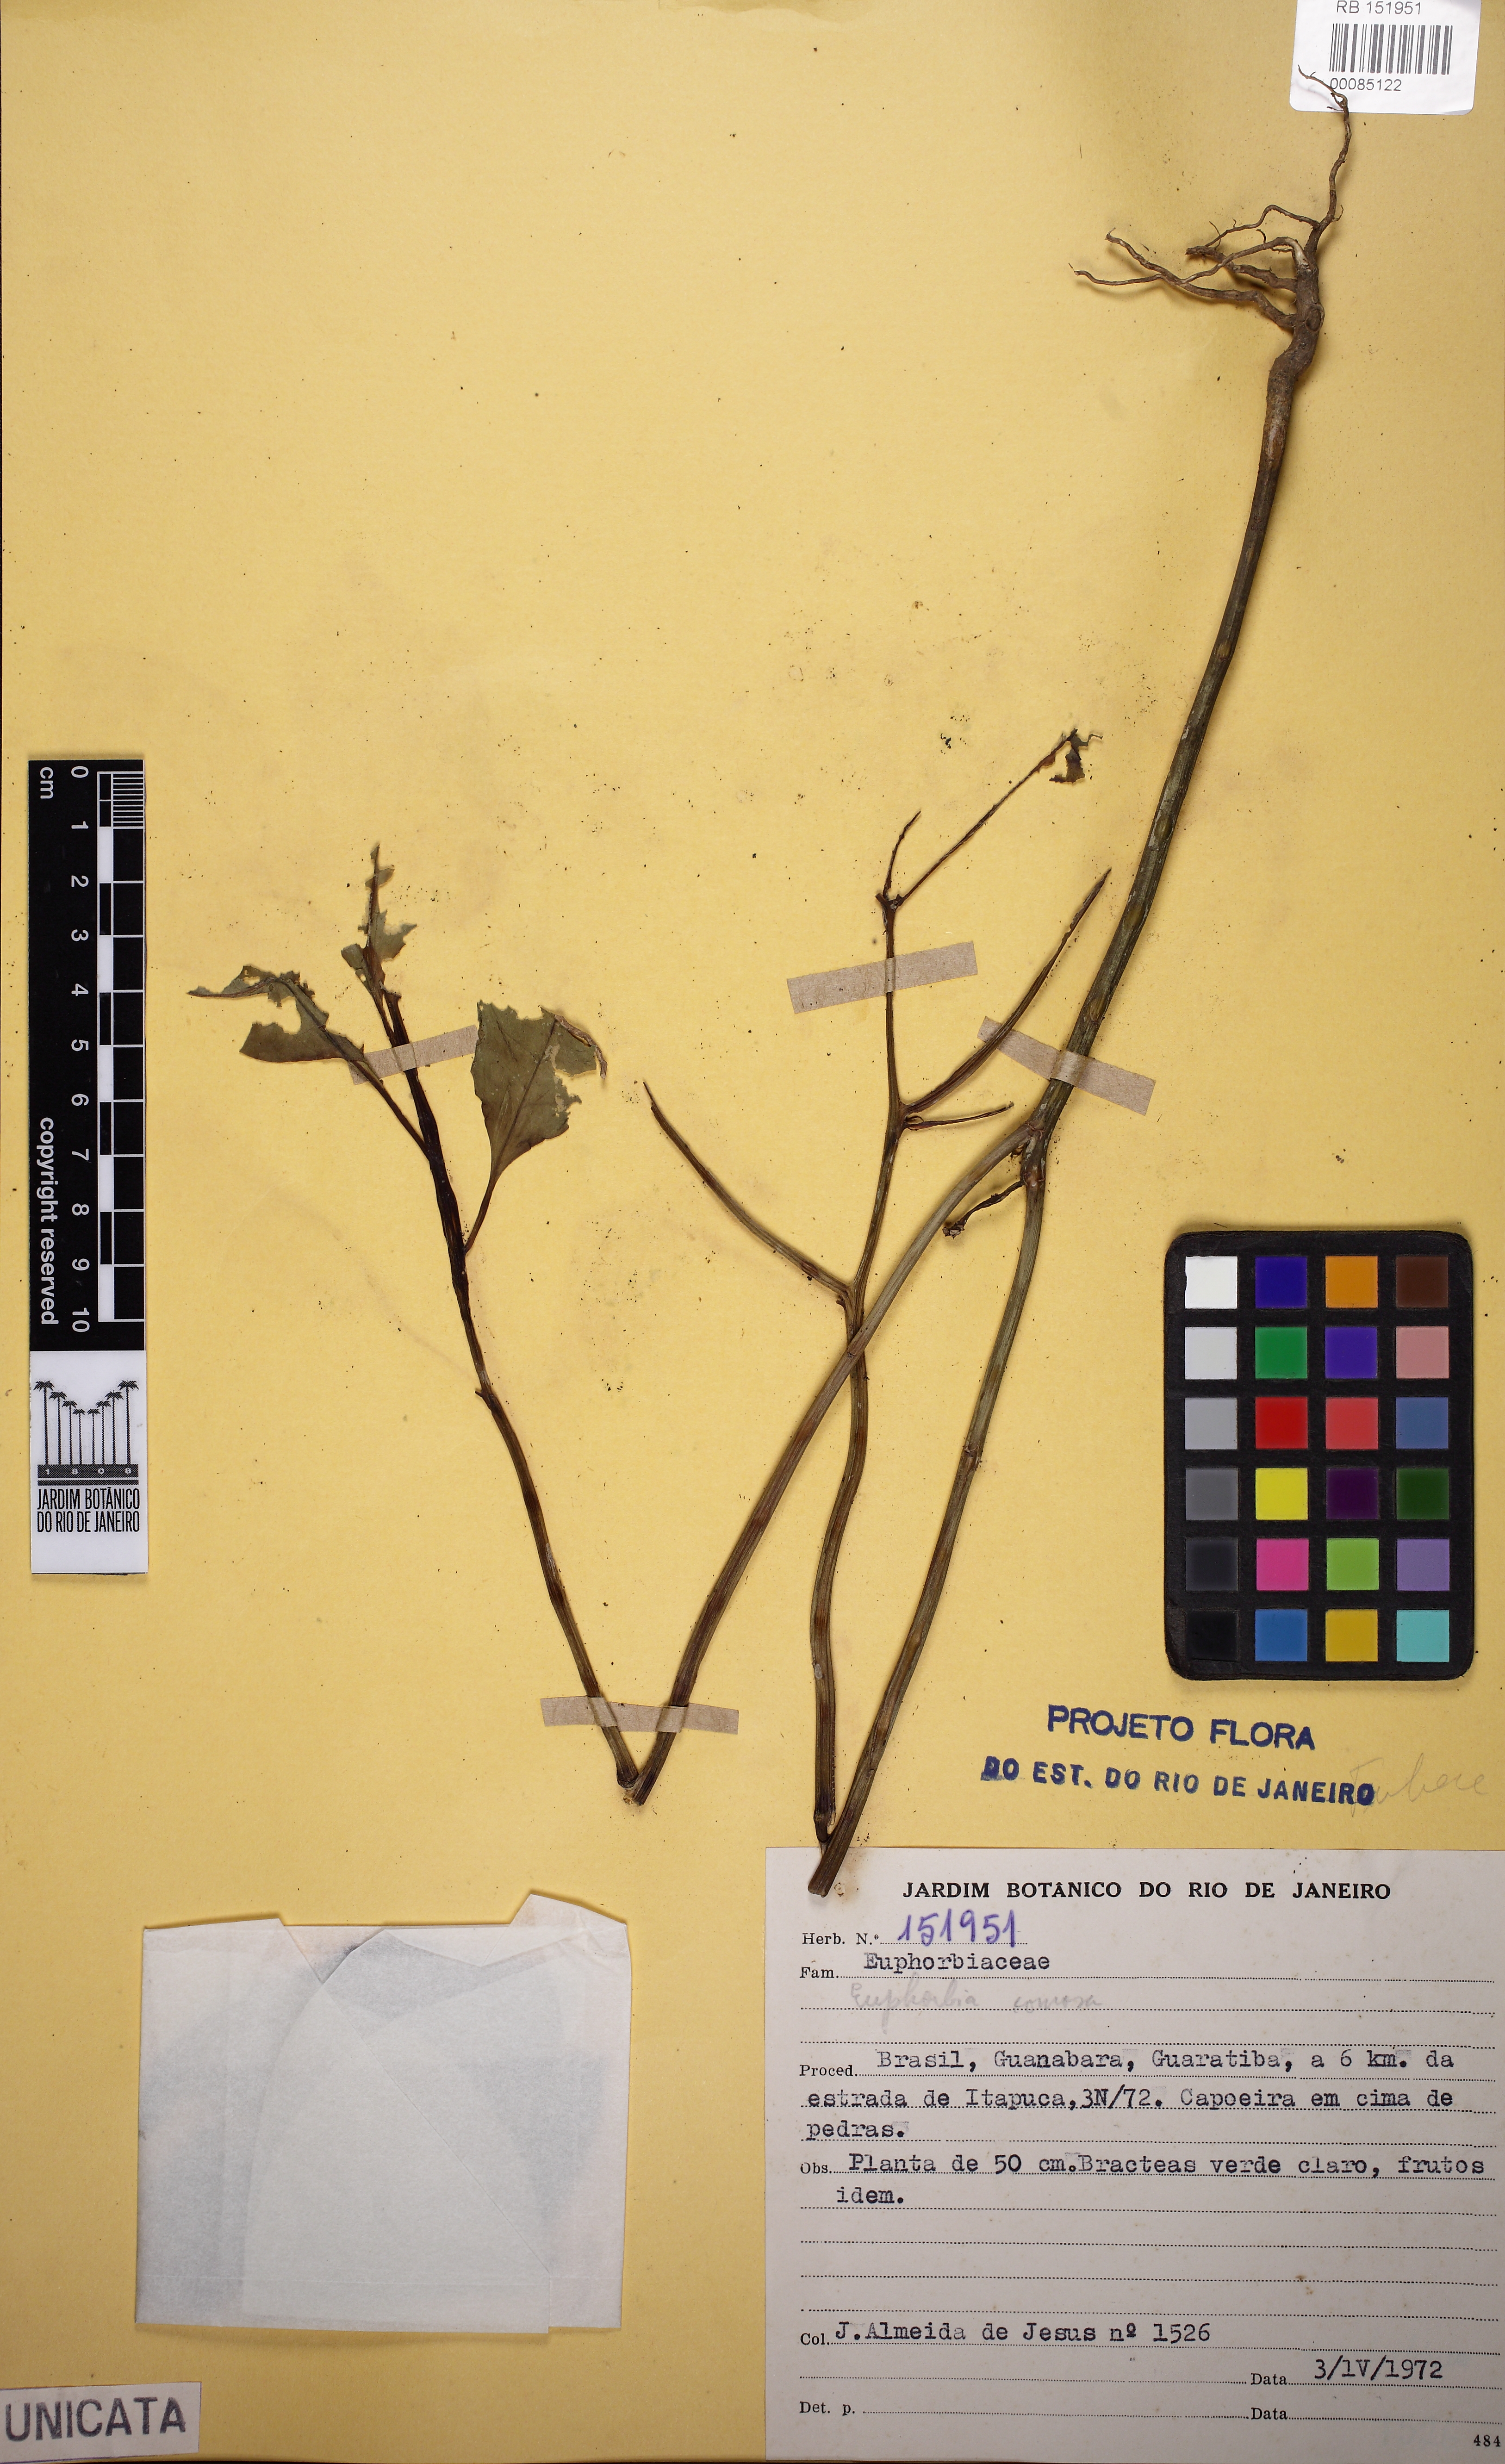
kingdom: Plantae
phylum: Tracheophyta
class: Magnoliopsida
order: Malpighiales
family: Euphorbiaceae
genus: Euphorbia
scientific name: Euphorbia comosa
